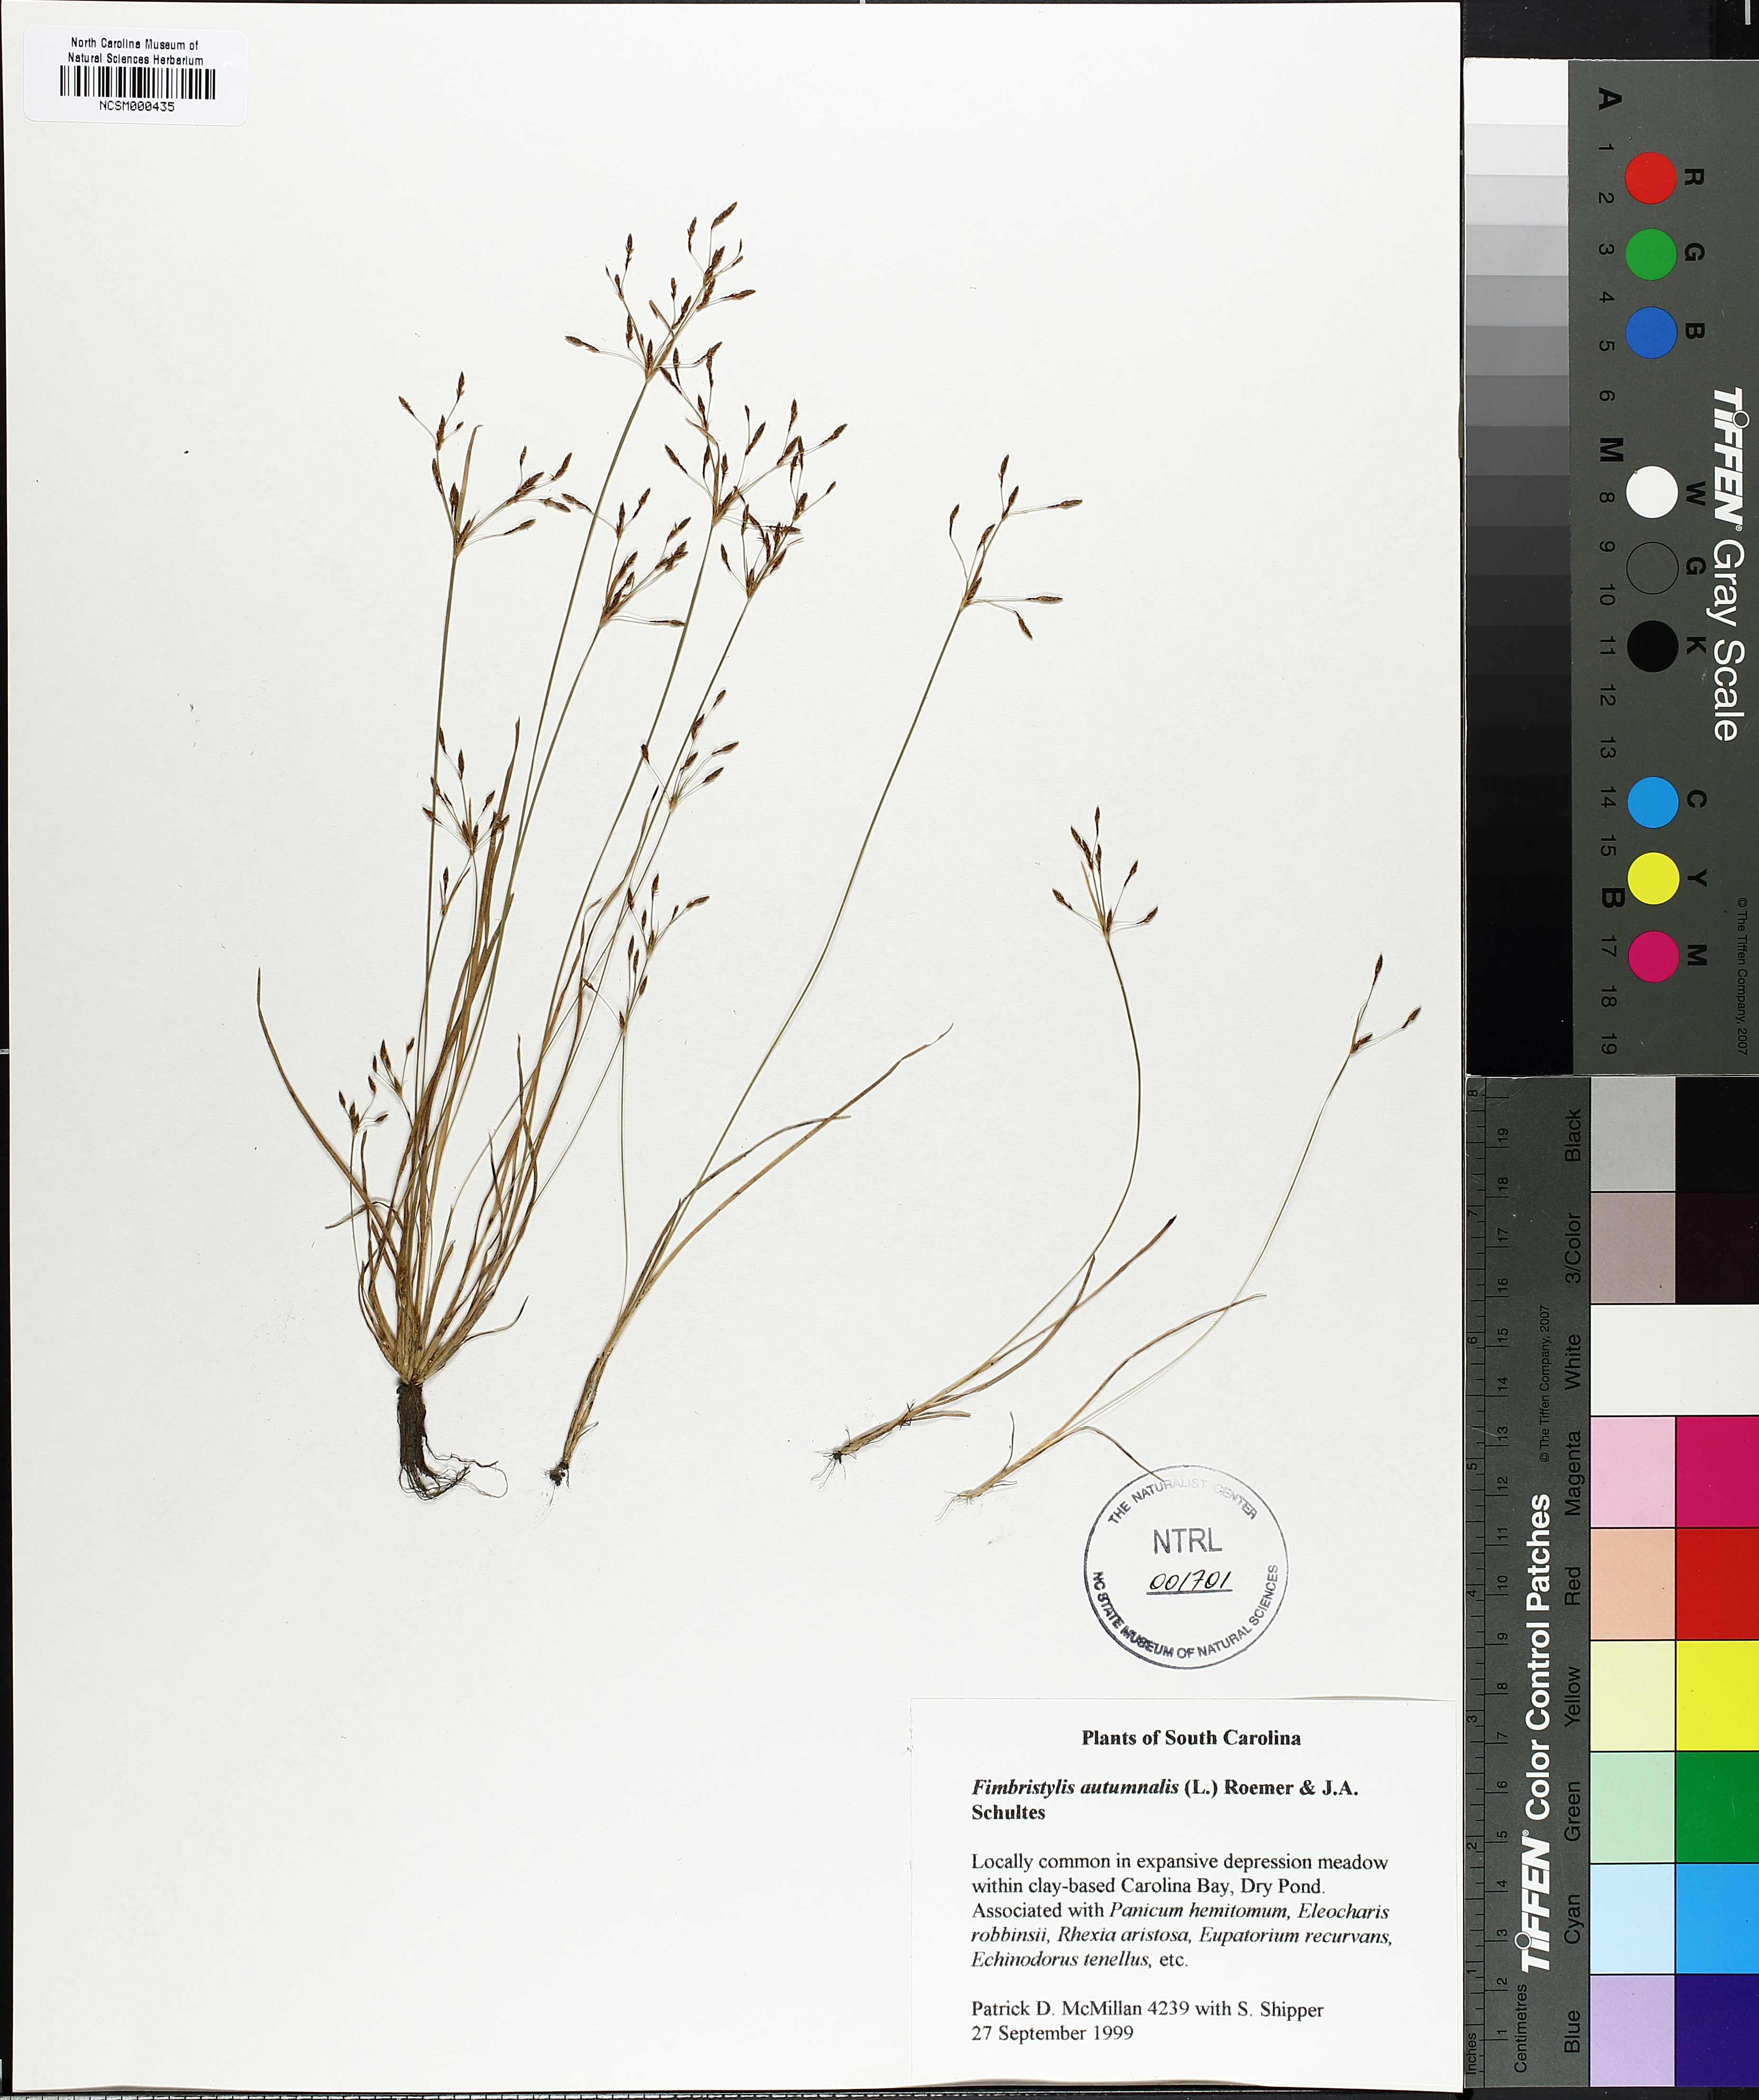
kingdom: Plantae
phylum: Tracheophyta
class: Liliopsida
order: Poales
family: Cyperaceae
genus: Fimbristylis
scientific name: Fimbristylis autumnalis
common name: Slender fimbristylis
